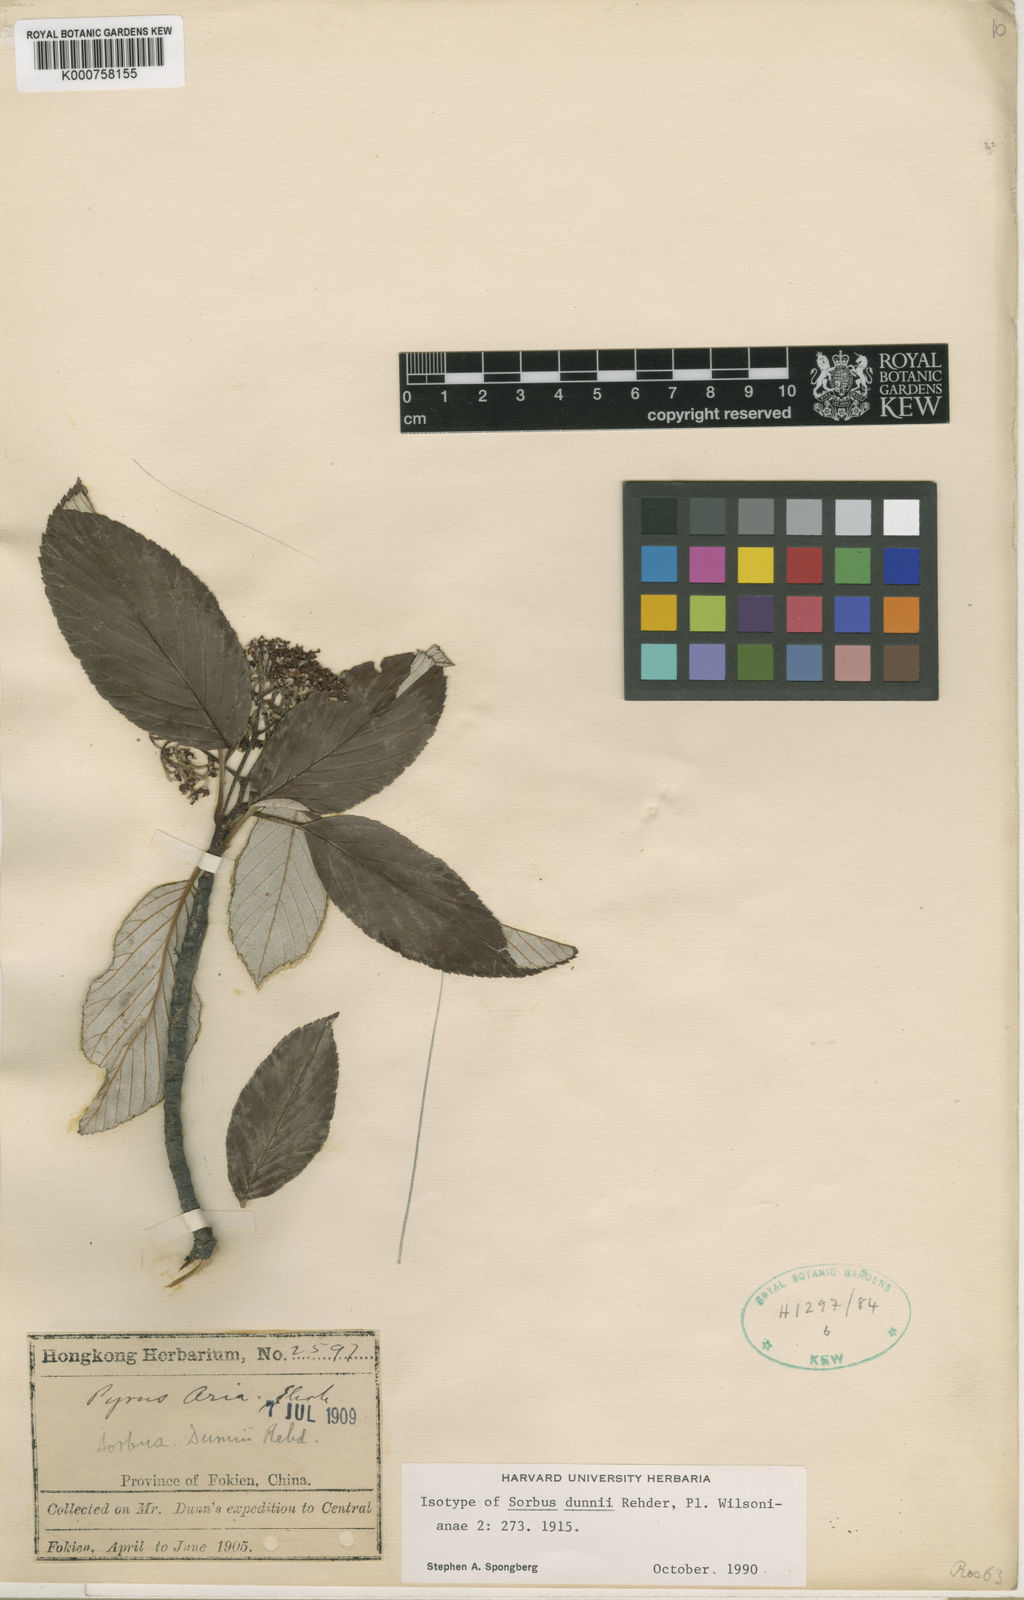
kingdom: Plantae
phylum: Tracheophyta
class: Magnoliopsida
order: Rosales
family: Rosaceae
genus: Sorbus
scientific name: Sorbus dunnii
